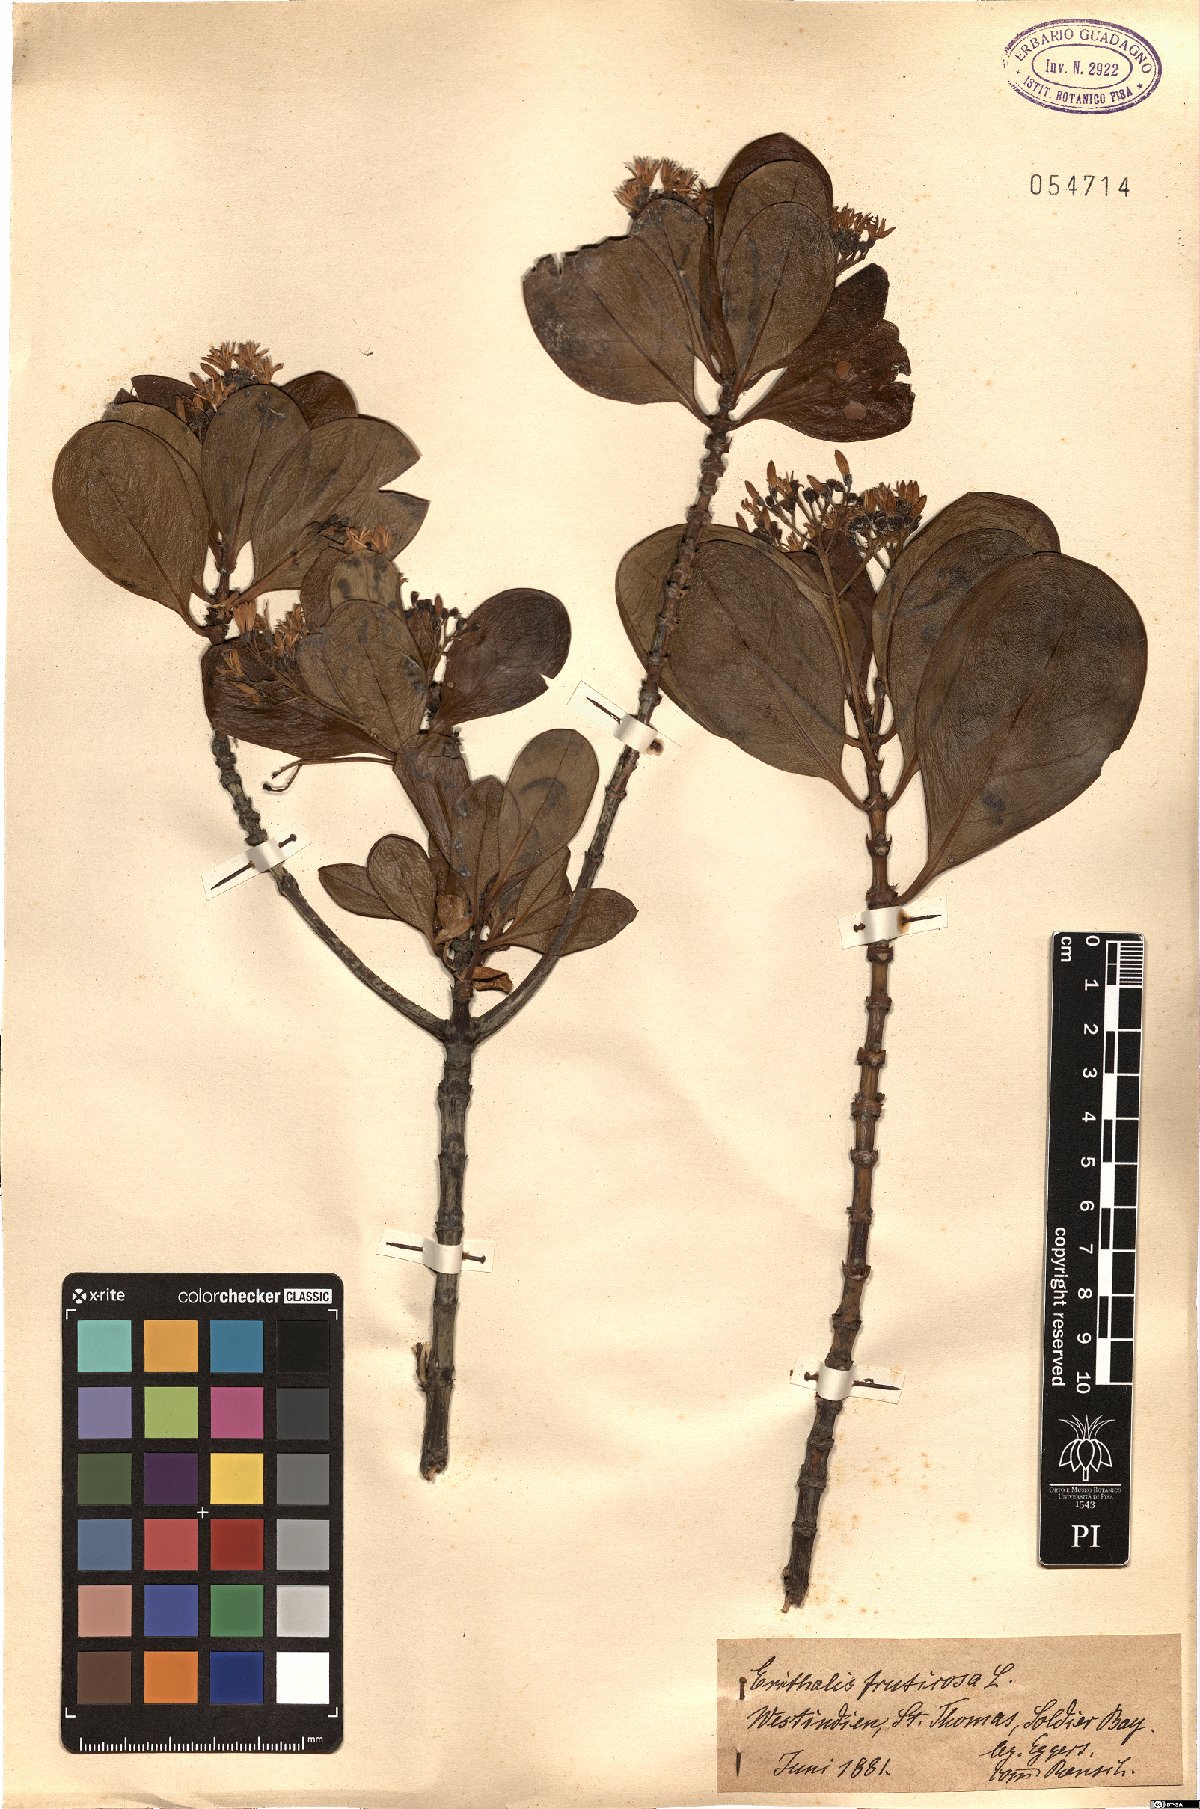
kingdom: Plantae
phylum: Tracheophyta
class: Magnoliopsida
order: Gentianales
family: Rubiaceae
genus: Erithalis
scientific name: Erithalis fruticosa
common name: Candlewood
